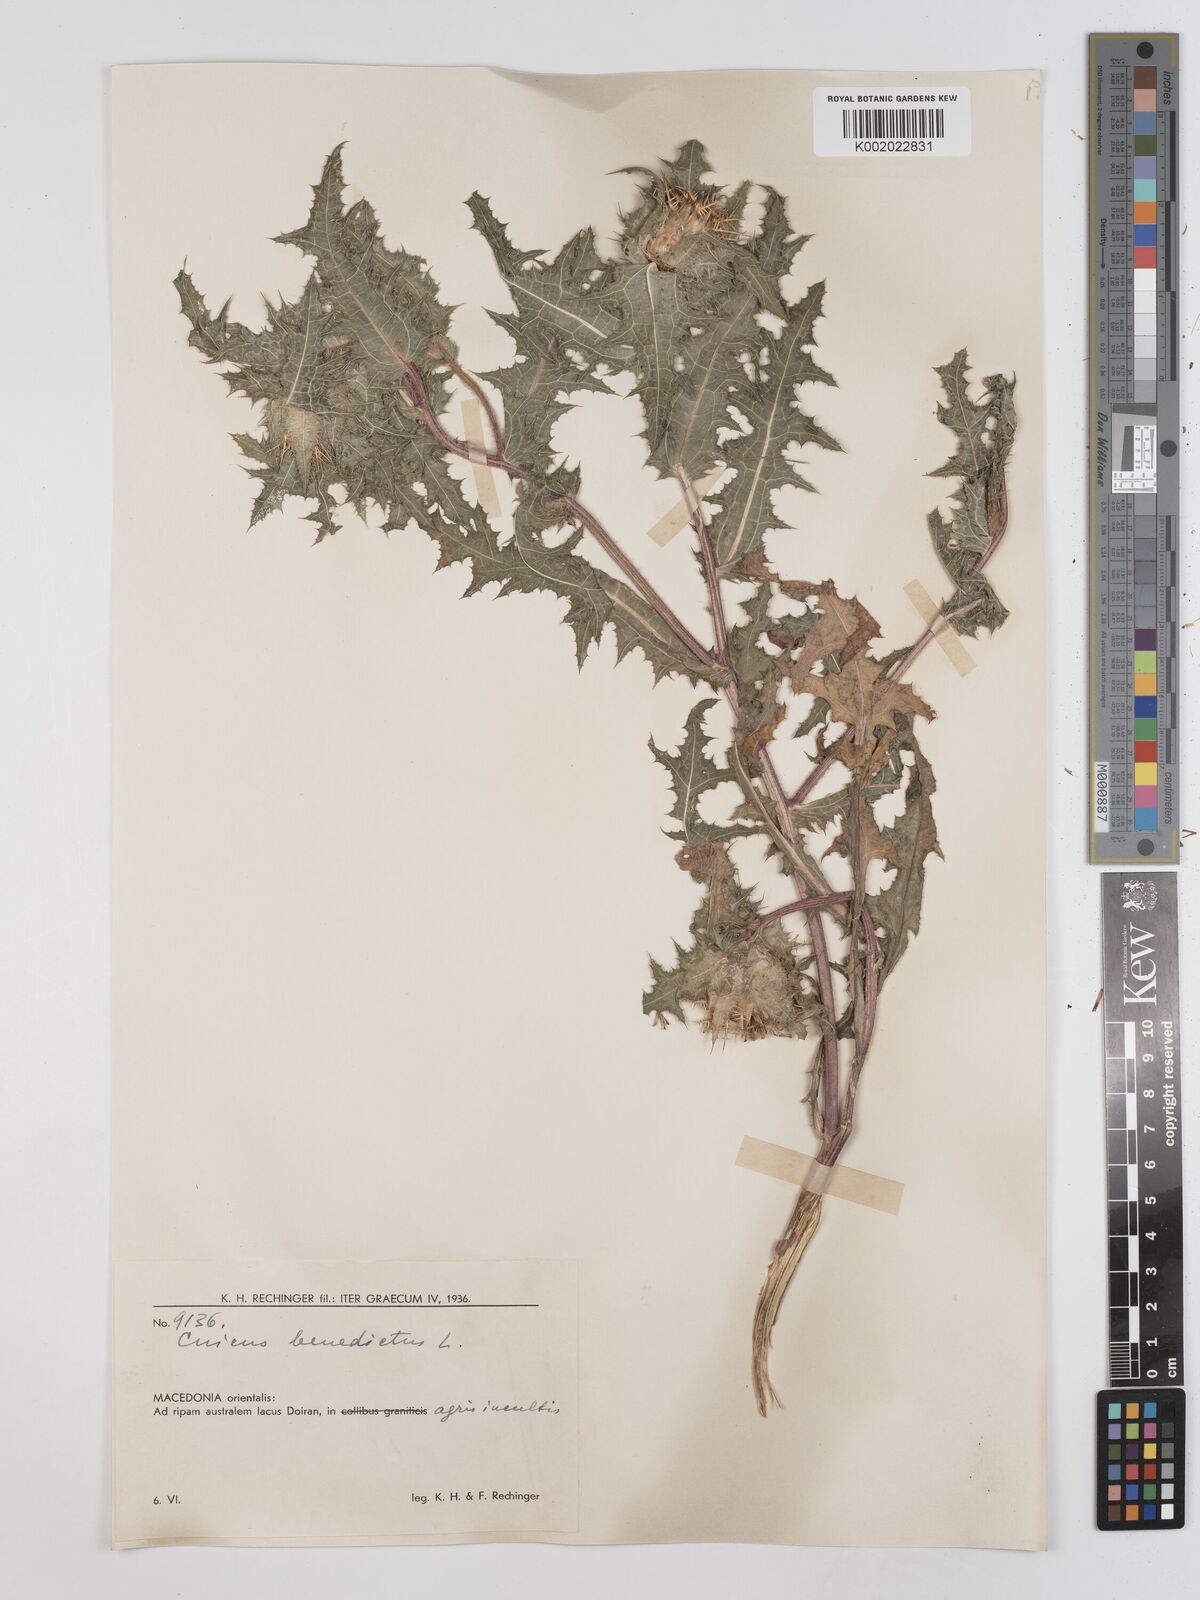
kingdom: Plantae
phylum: Tracheophyta
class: Magnoliopsida
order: Asterales
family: Asteraceae
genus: Centaurea
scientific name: Centaurea benedicta
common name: Blessed thistle
